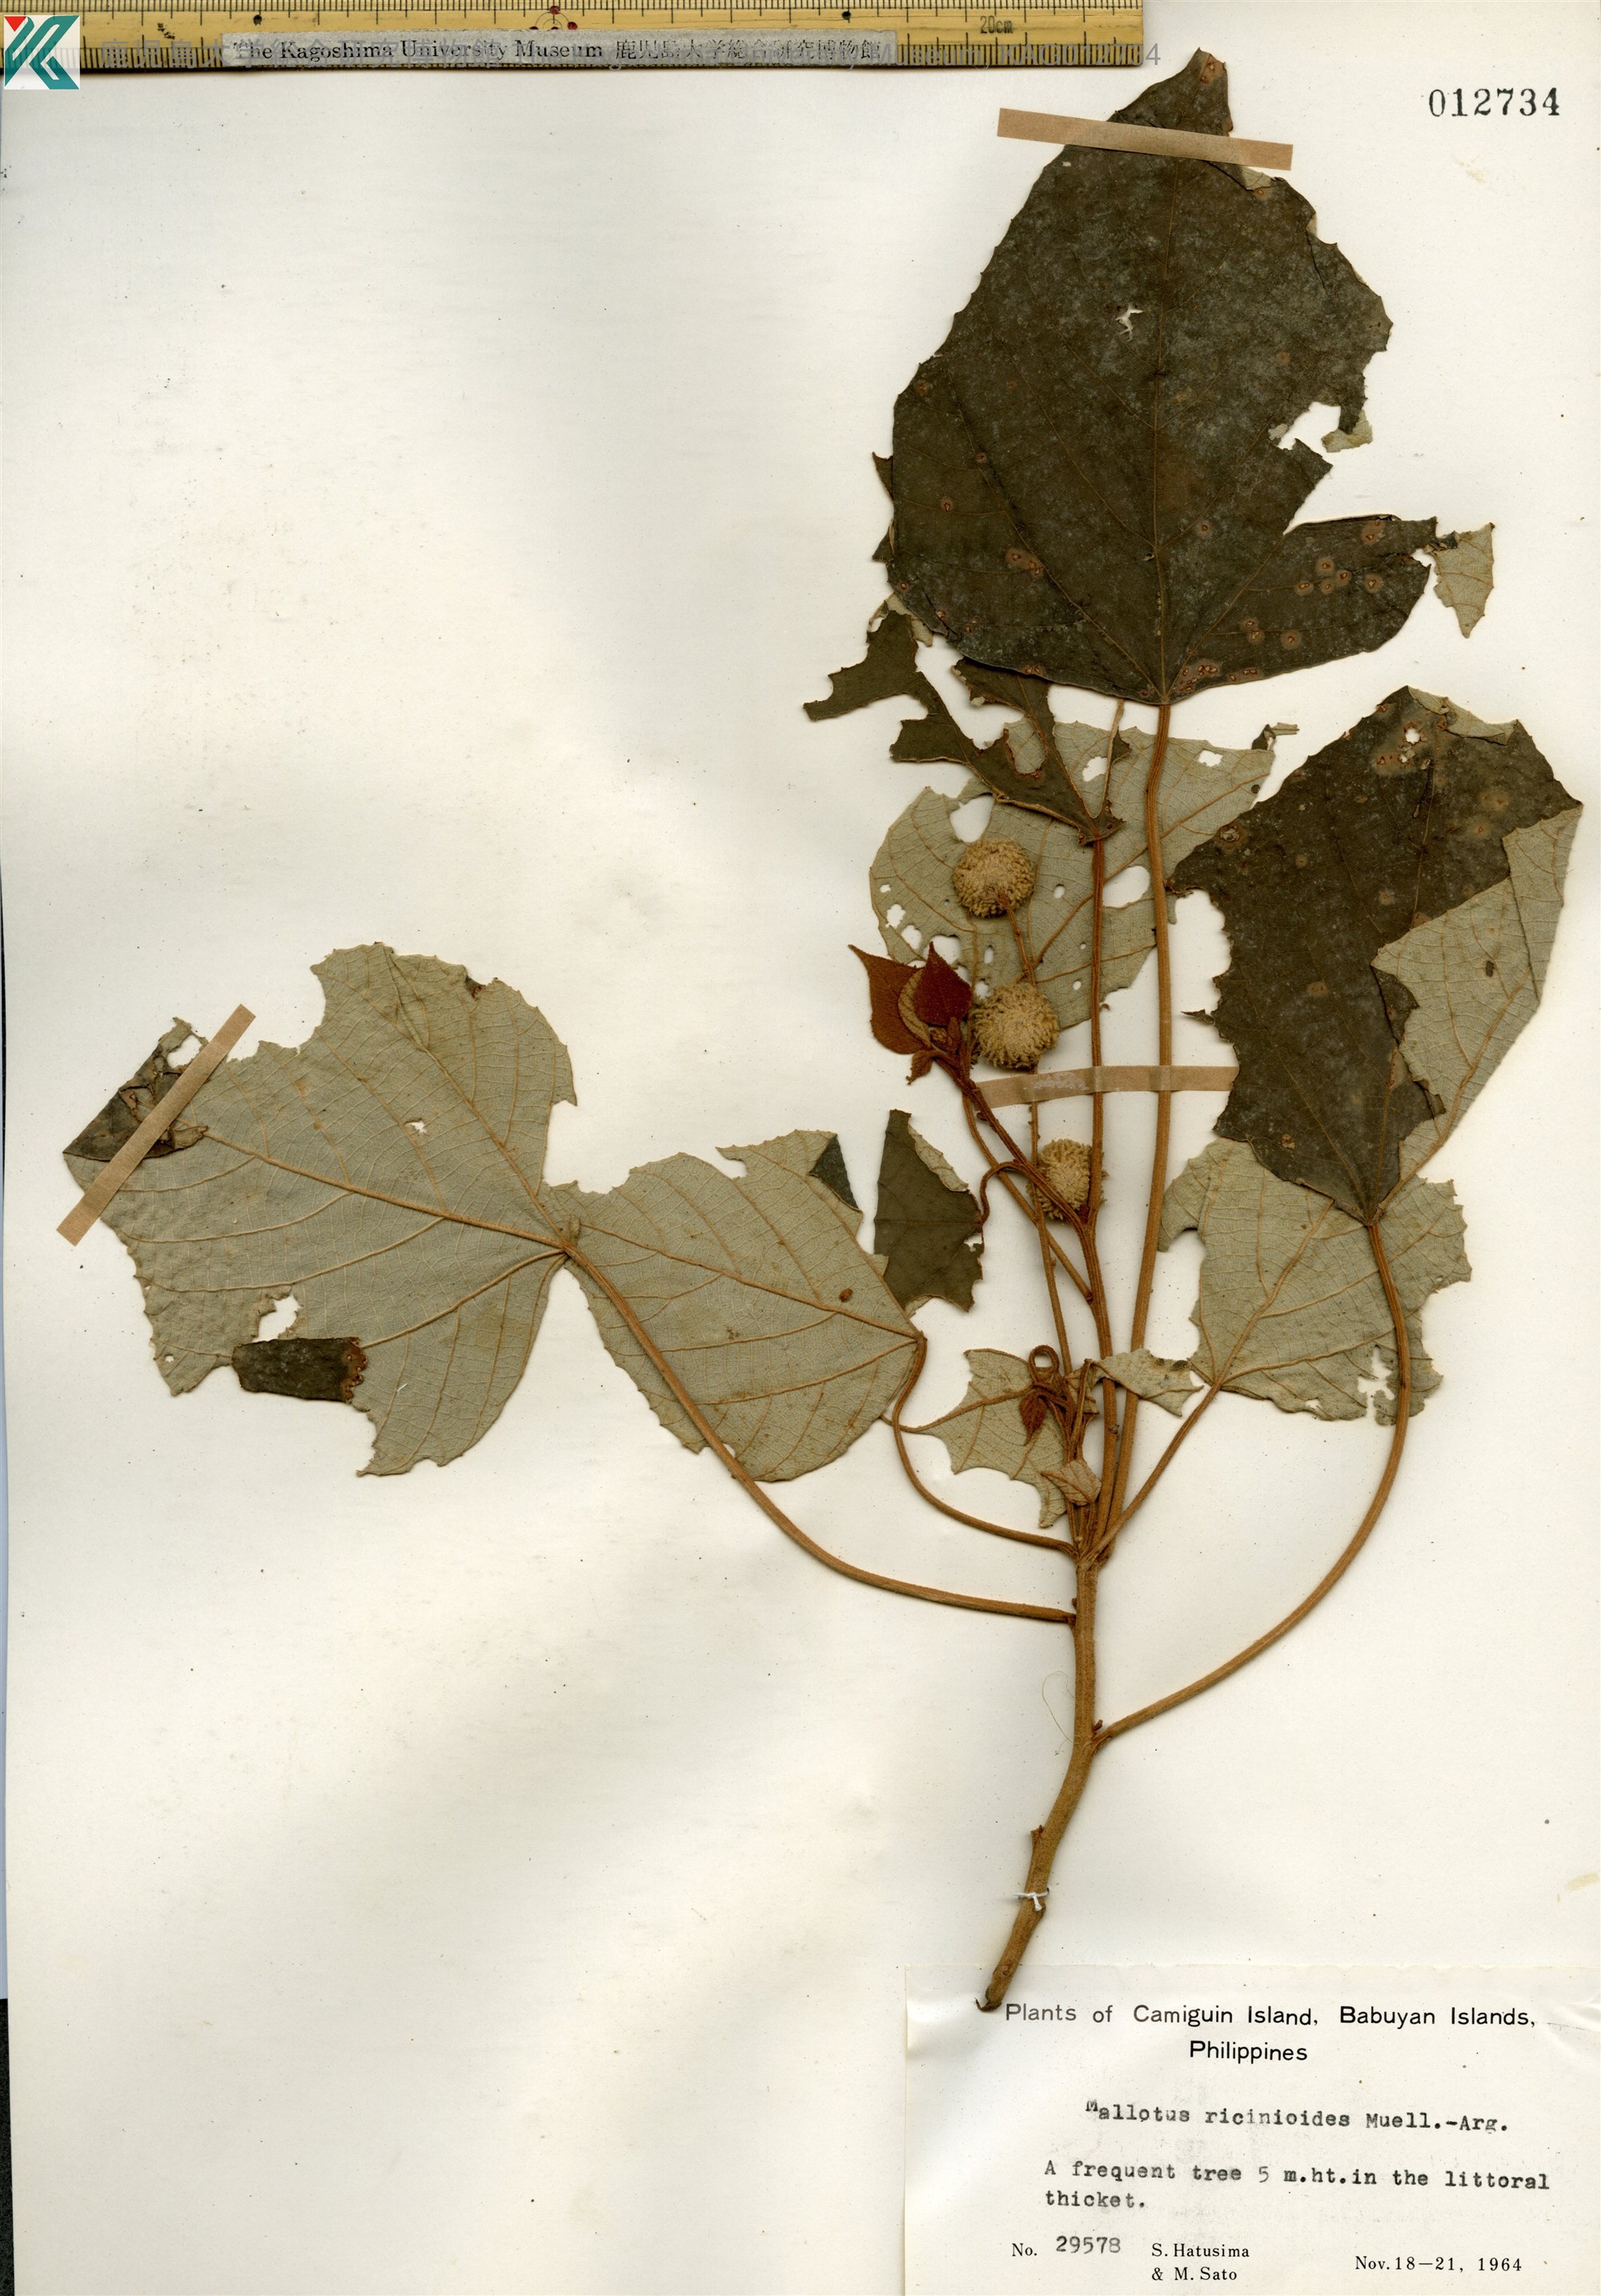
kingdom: Plantae
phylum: Tracheophyta
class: Magnoliopsida
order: Malpighiales
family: Euphorbiaceae
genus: Mallotus
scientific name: Mallotus mollissimus
